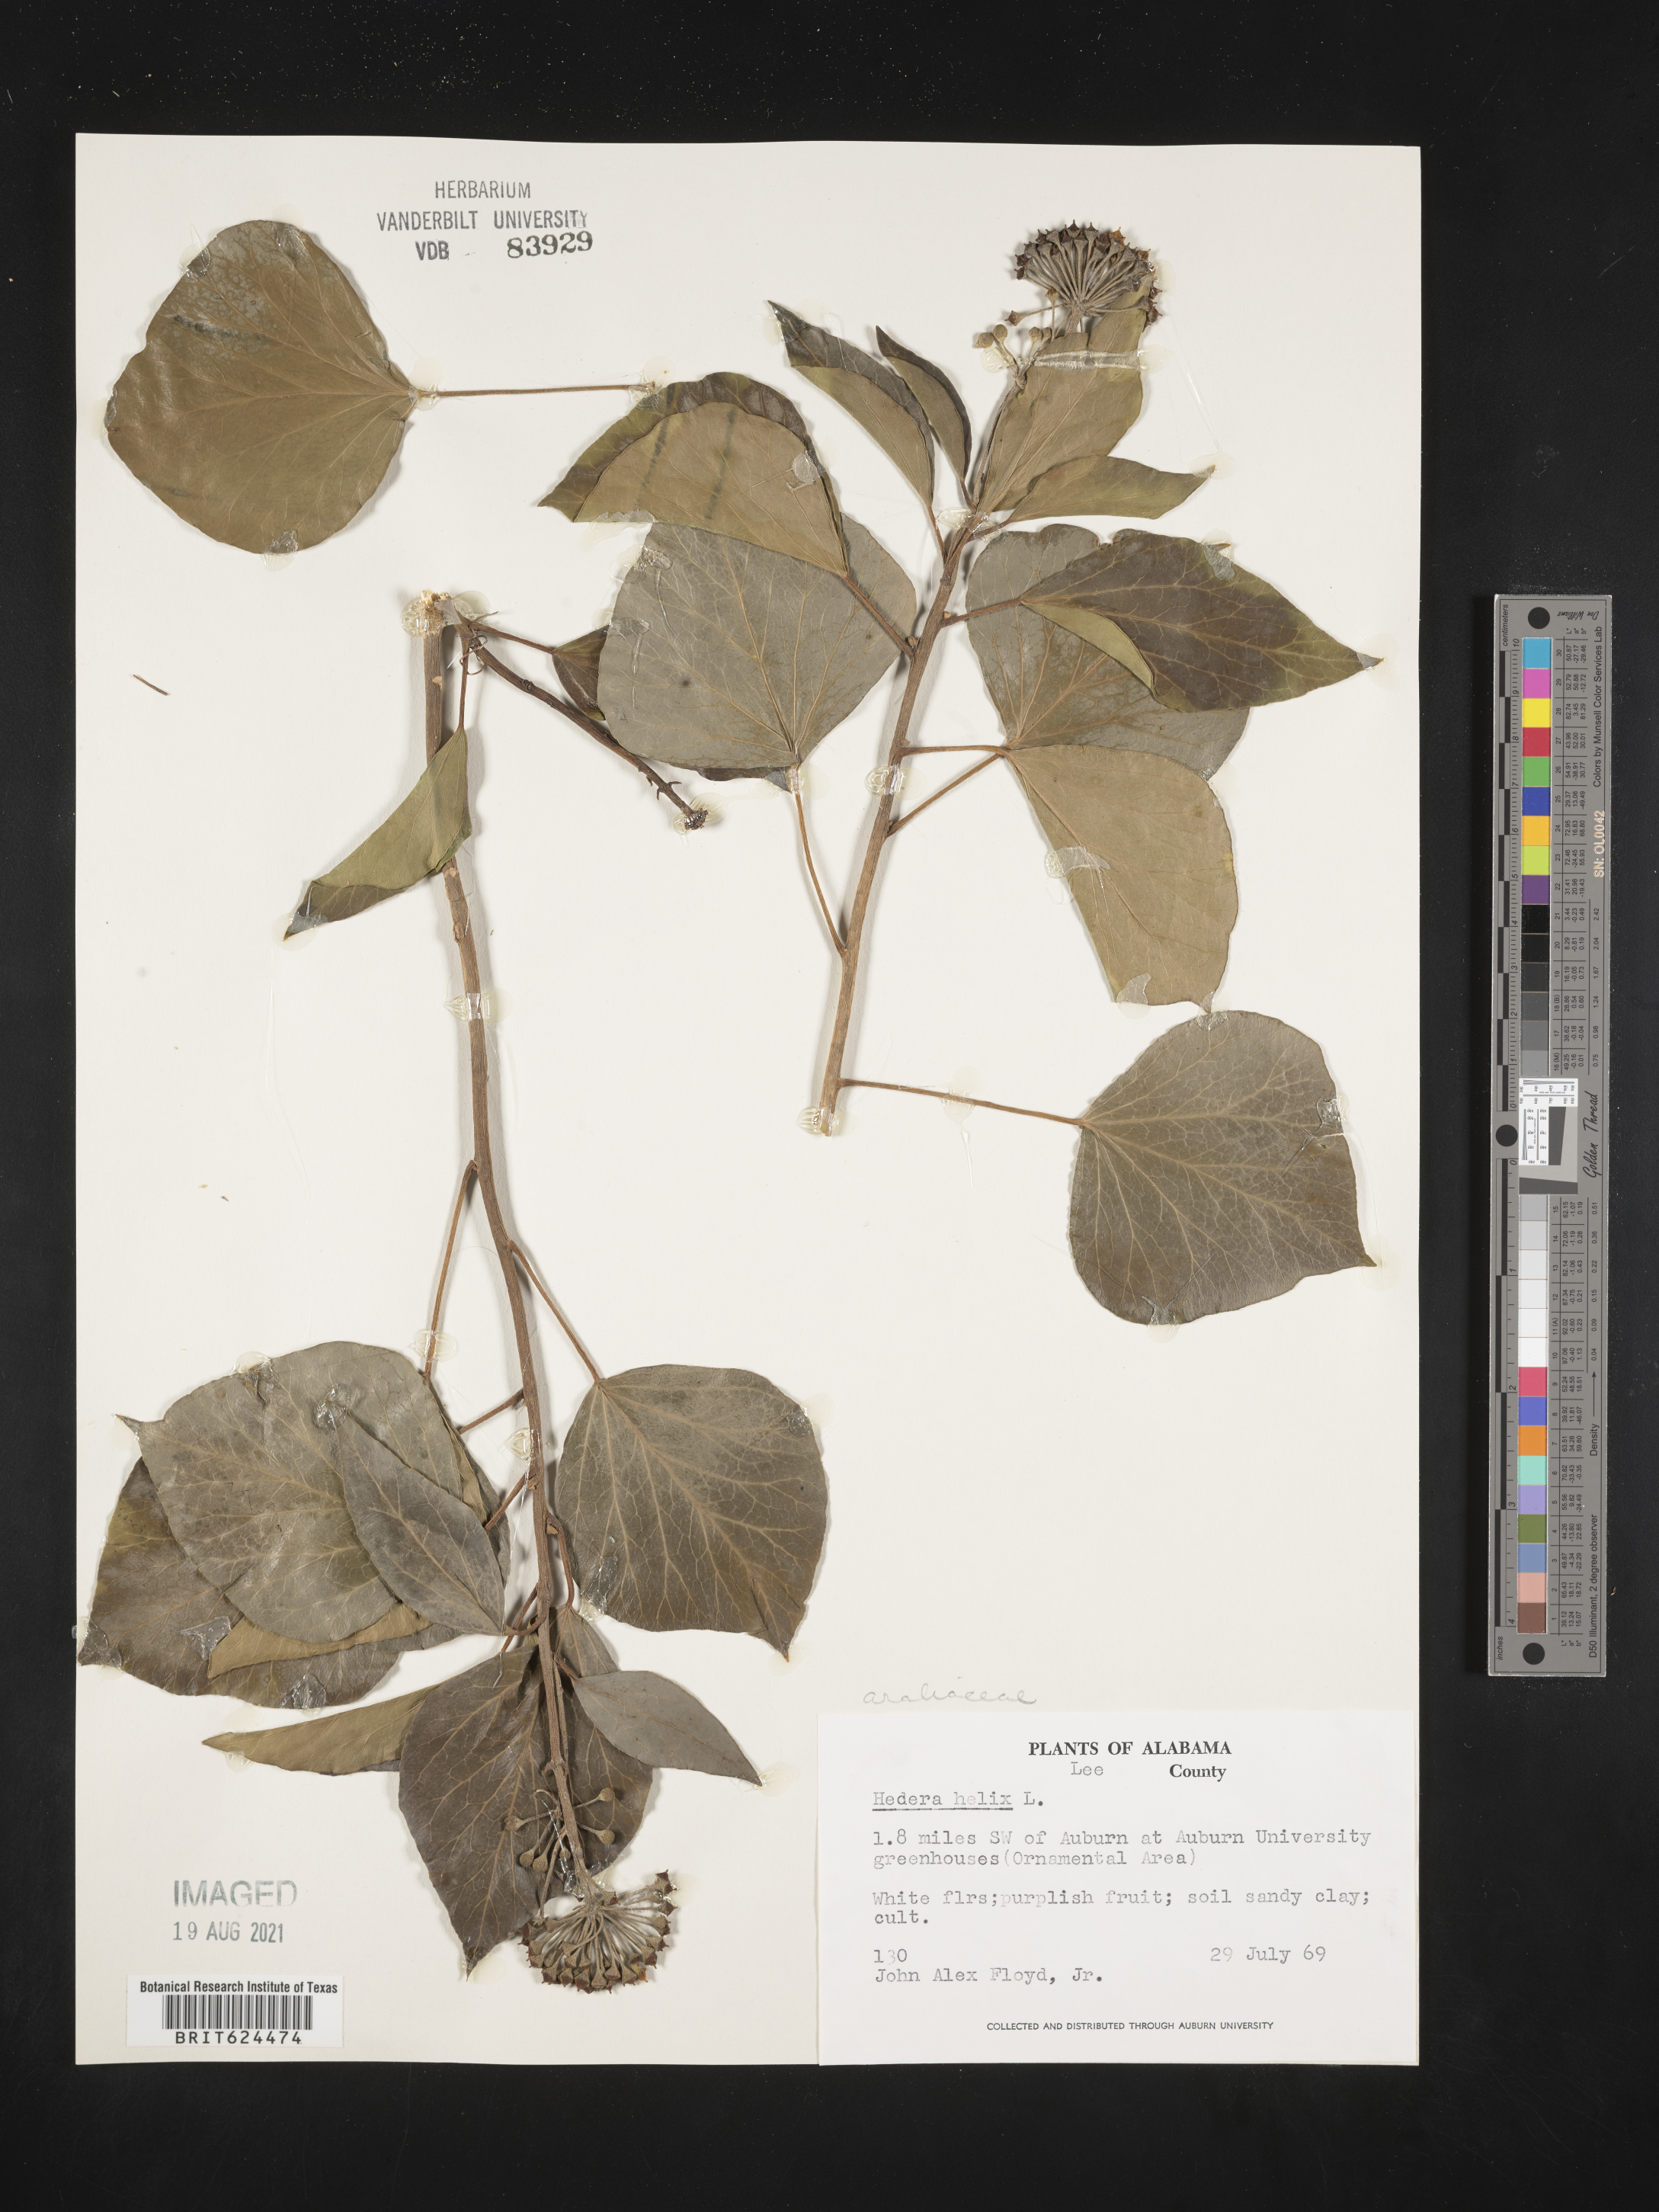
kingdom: Plantae
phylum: Tracheophyta
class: Magnoliopsida
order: Apiales
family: Araliaceae
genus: Hedera
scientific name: Hedera helix
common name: Ivy
